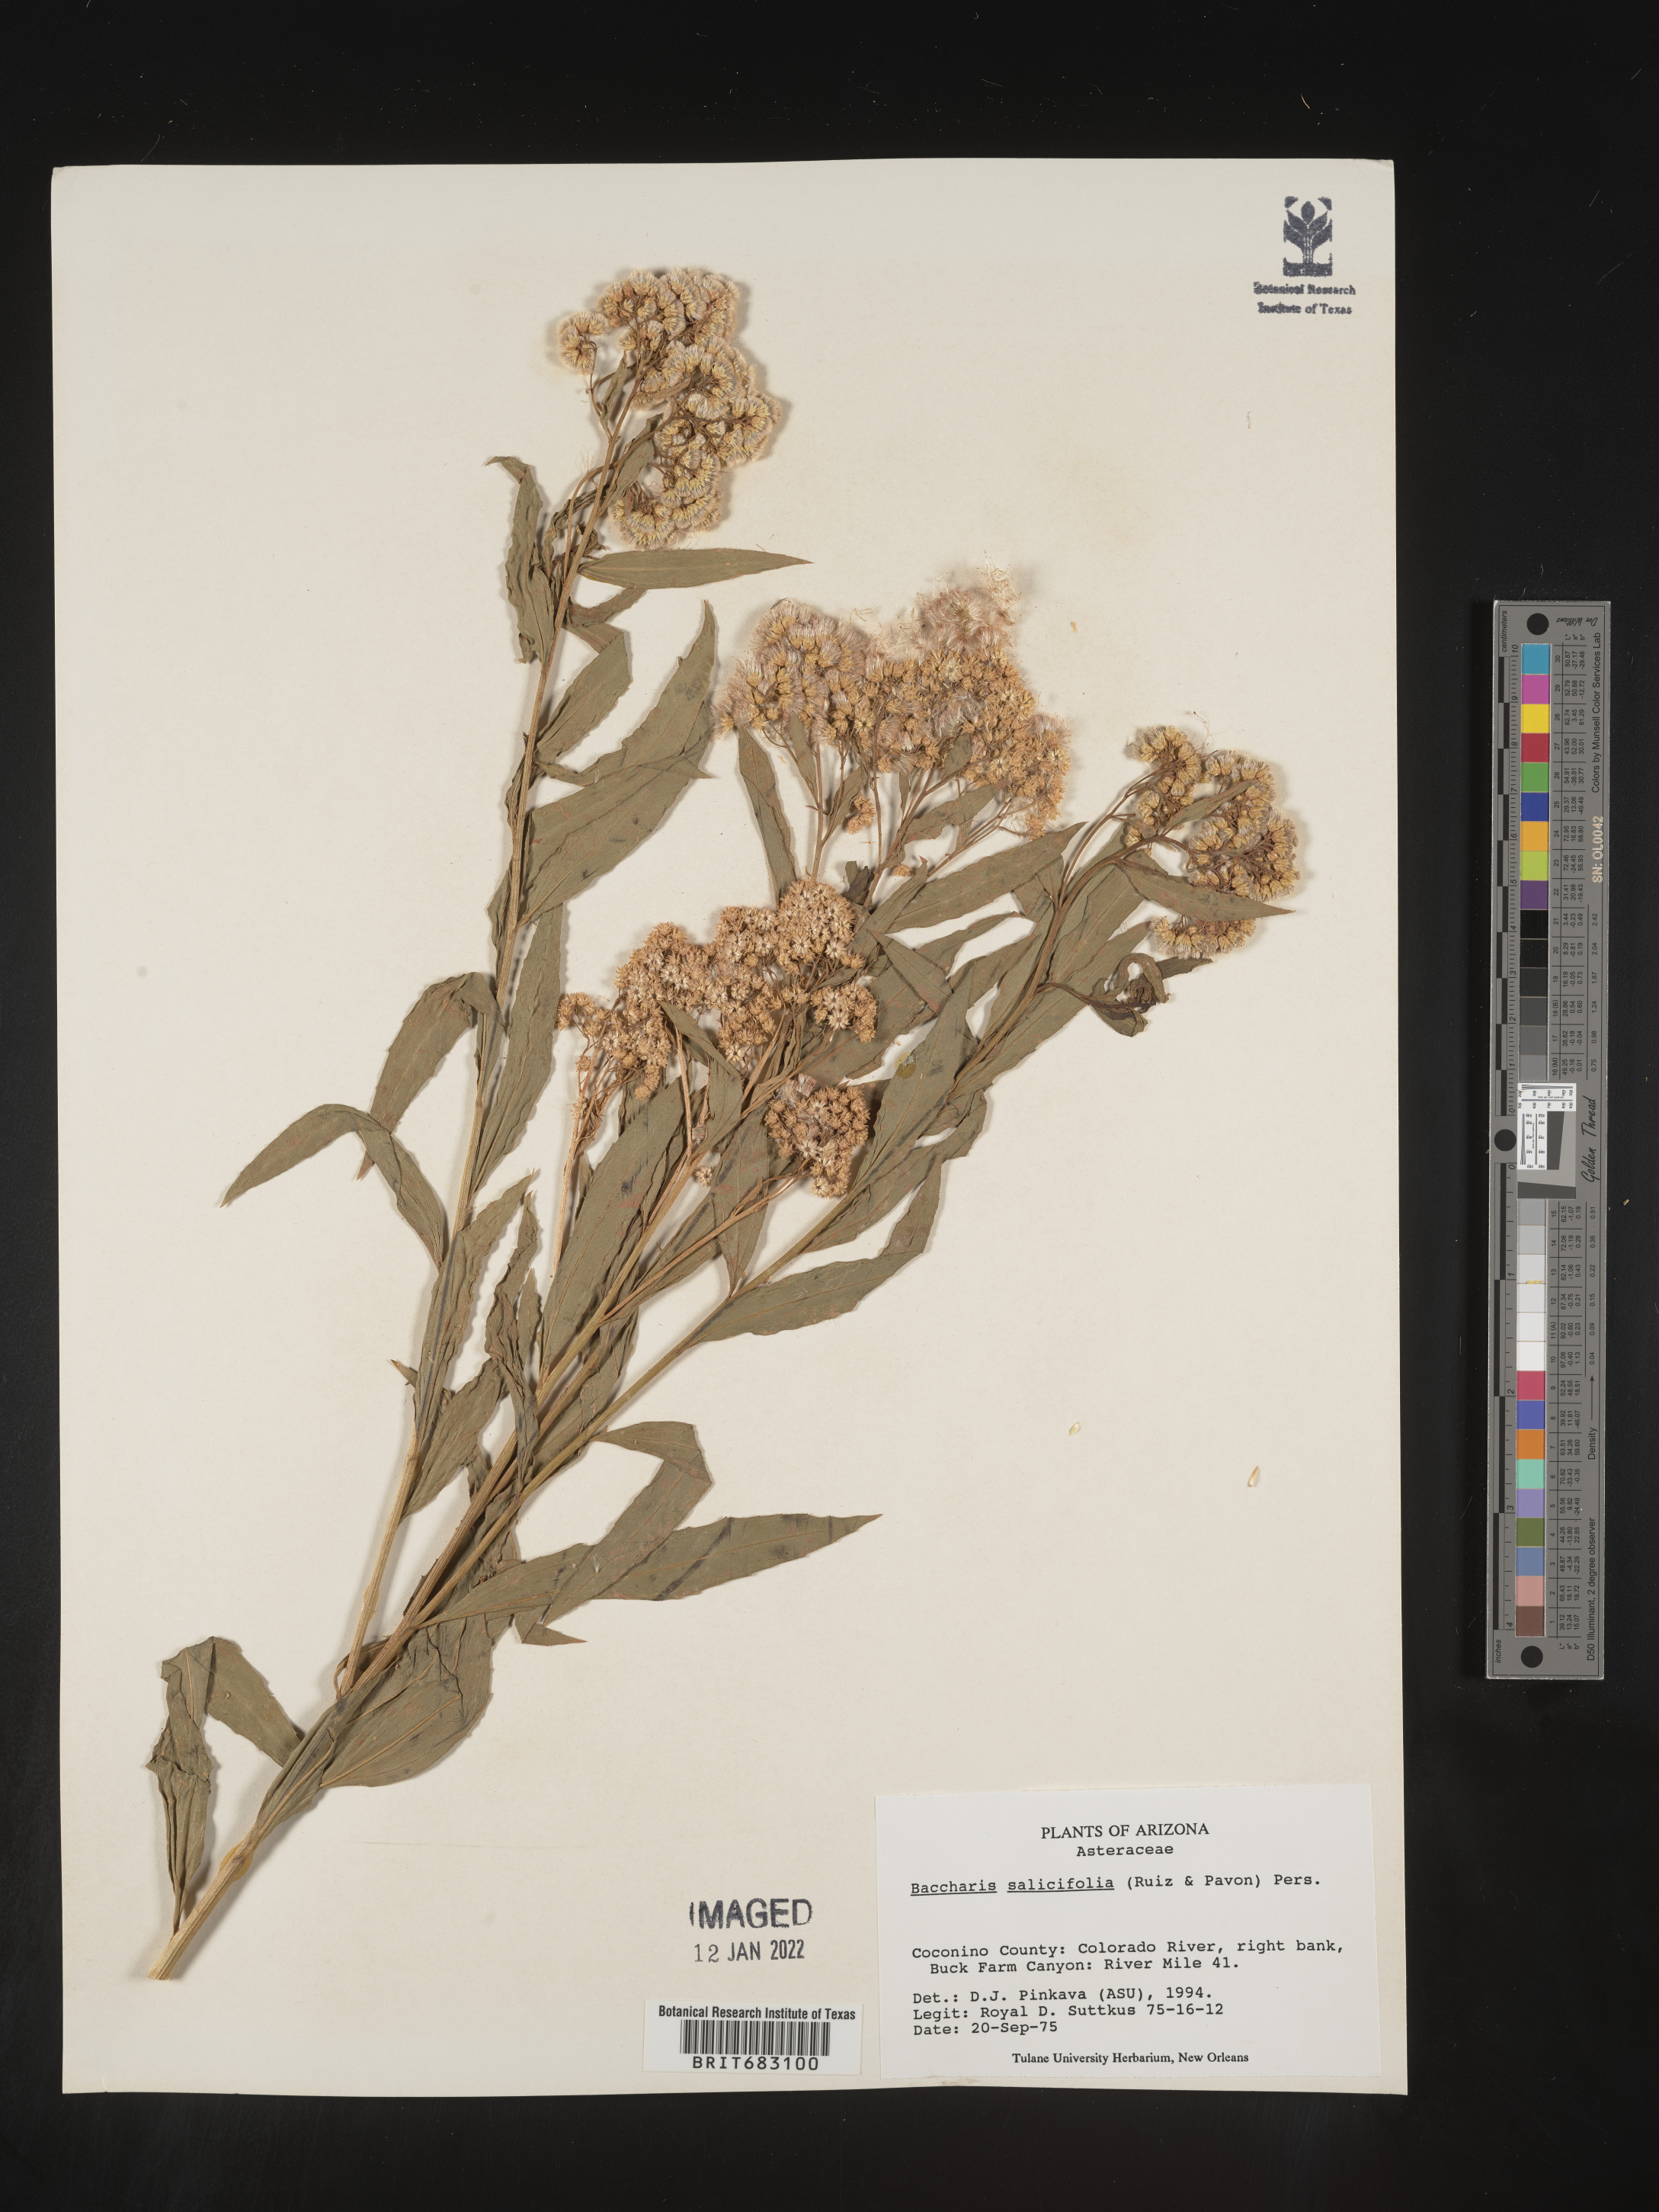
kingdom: Plantae
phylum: Tracheophyta
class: Magnoliopsida
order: Asterales
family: Asteraceae
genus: Baccharis
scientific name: Baccharis salicifolia
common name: Sticky baccharis
